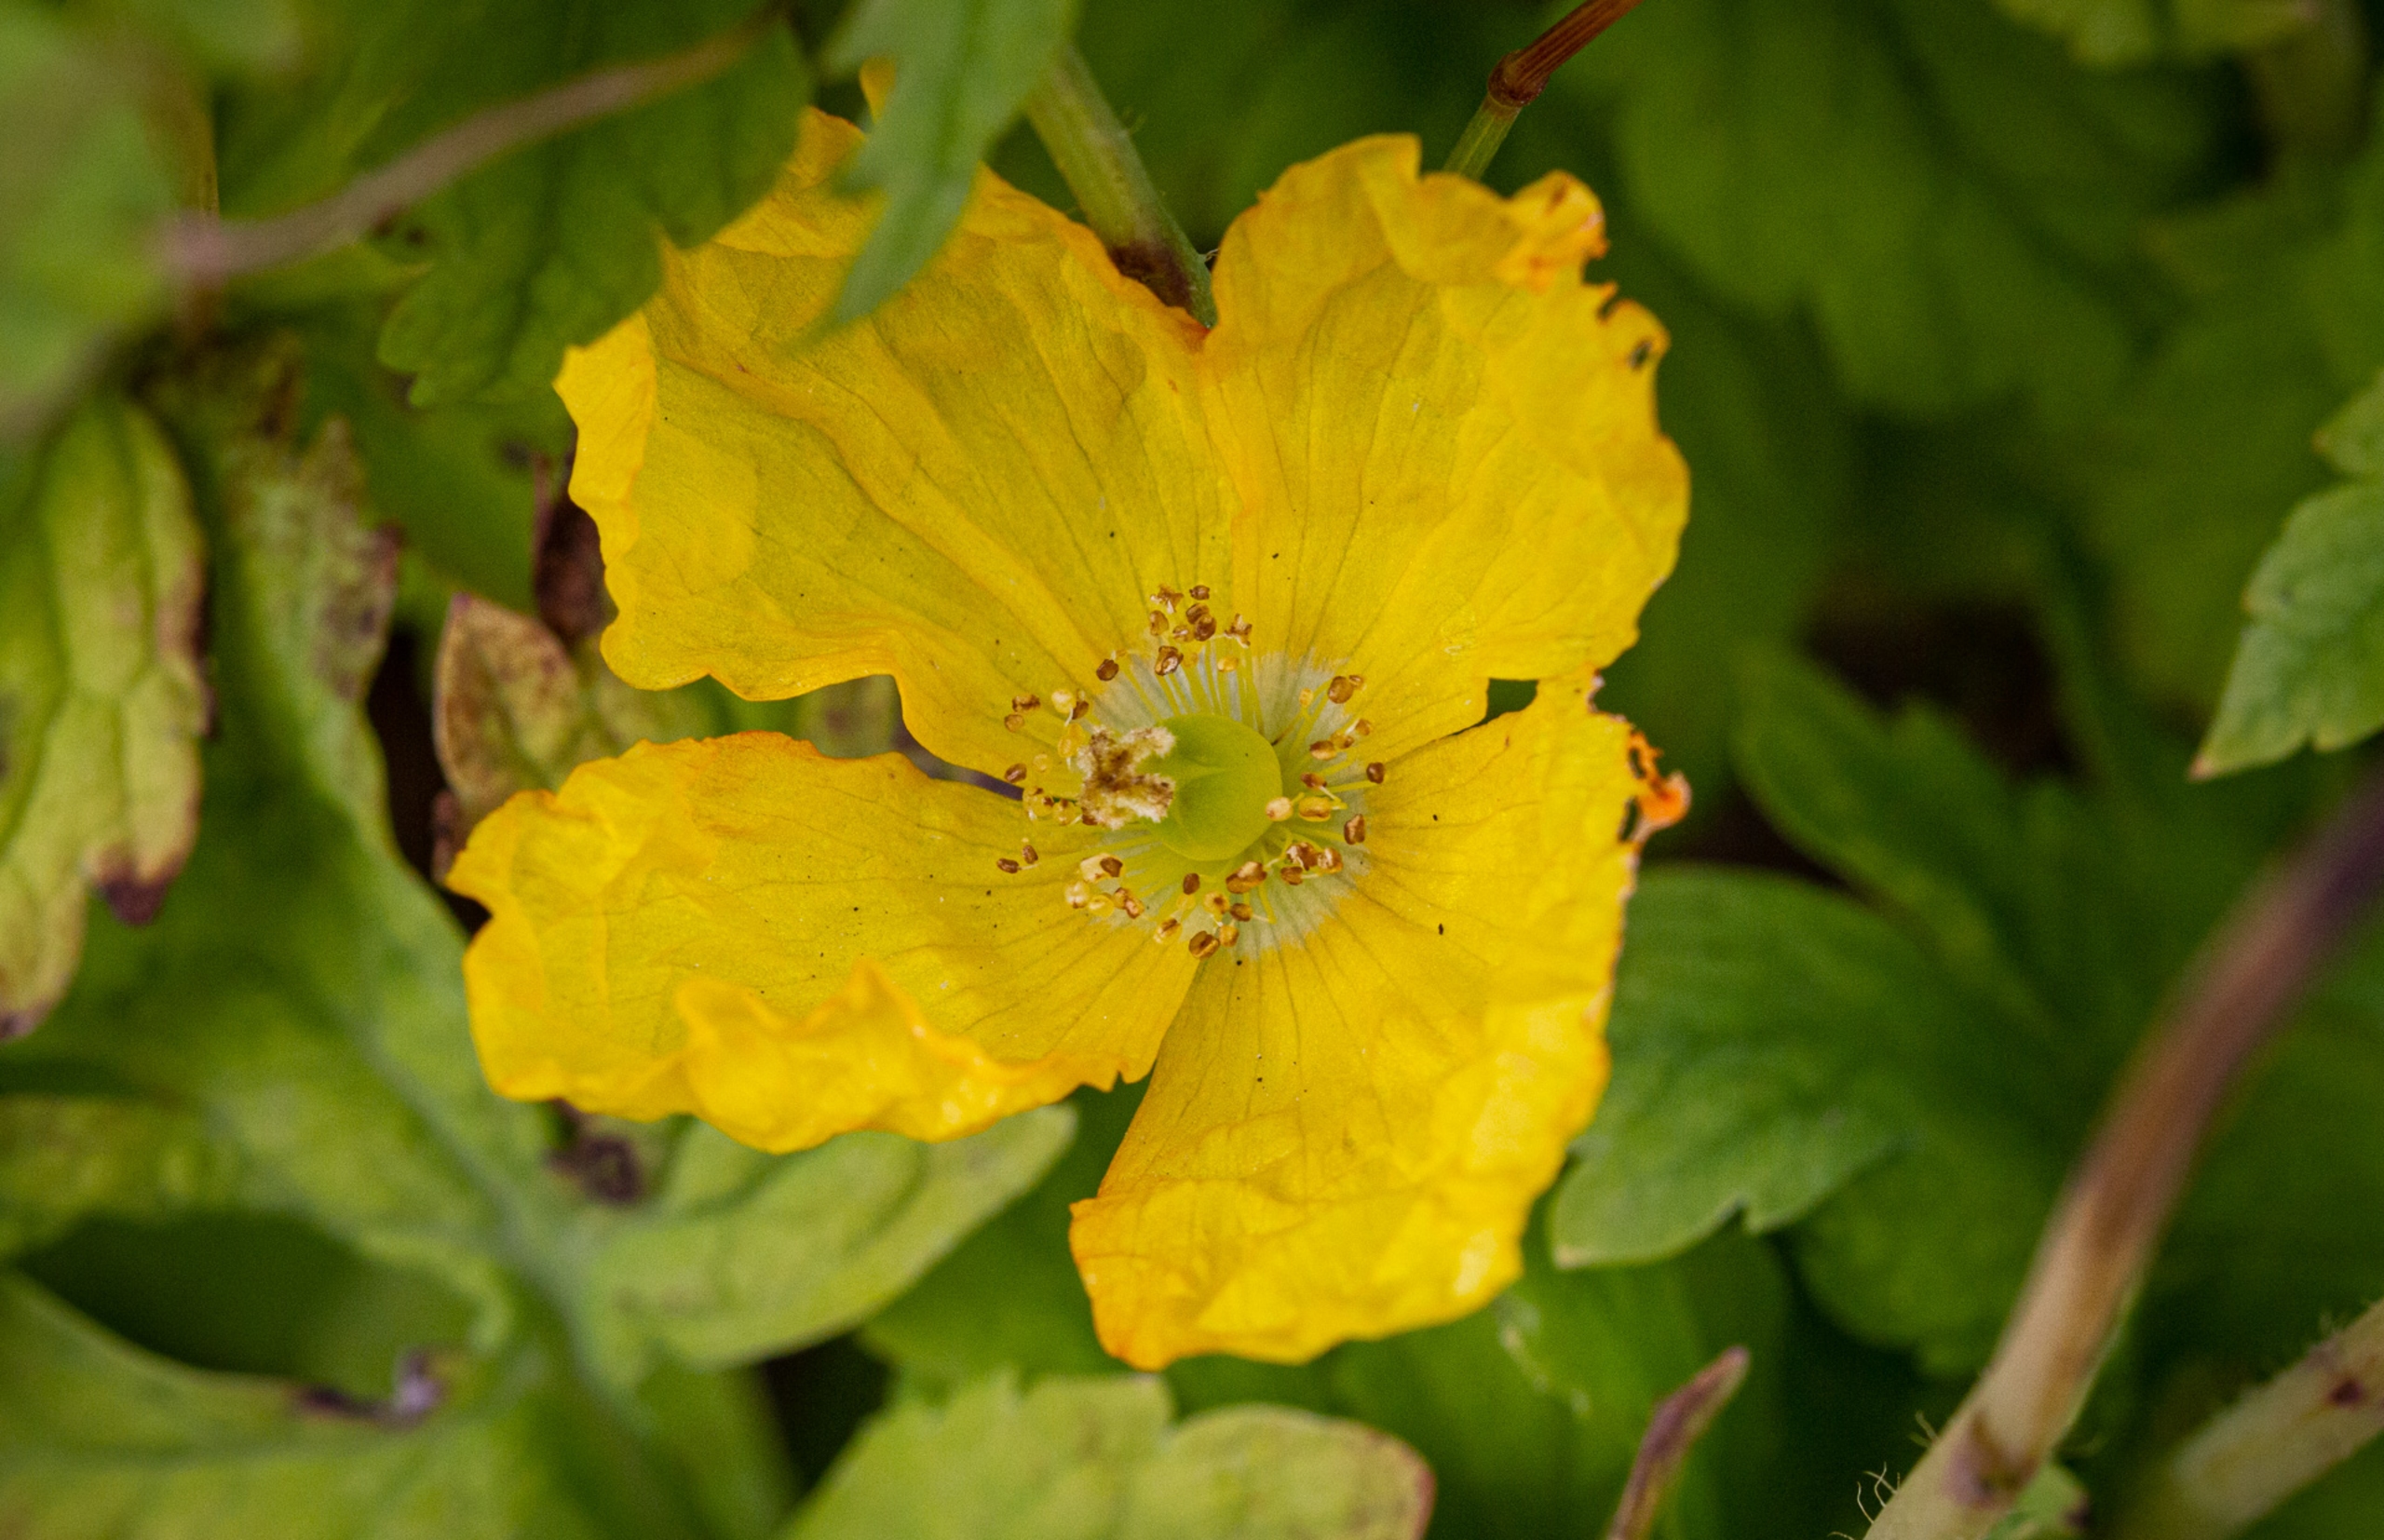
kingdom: Plantae
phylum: Tracheophyta
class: Magnoliopsida
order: Ranunculales
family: Papaveraceae
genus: Papaver
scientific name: Papaver cambricum
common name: Skov-valmue
